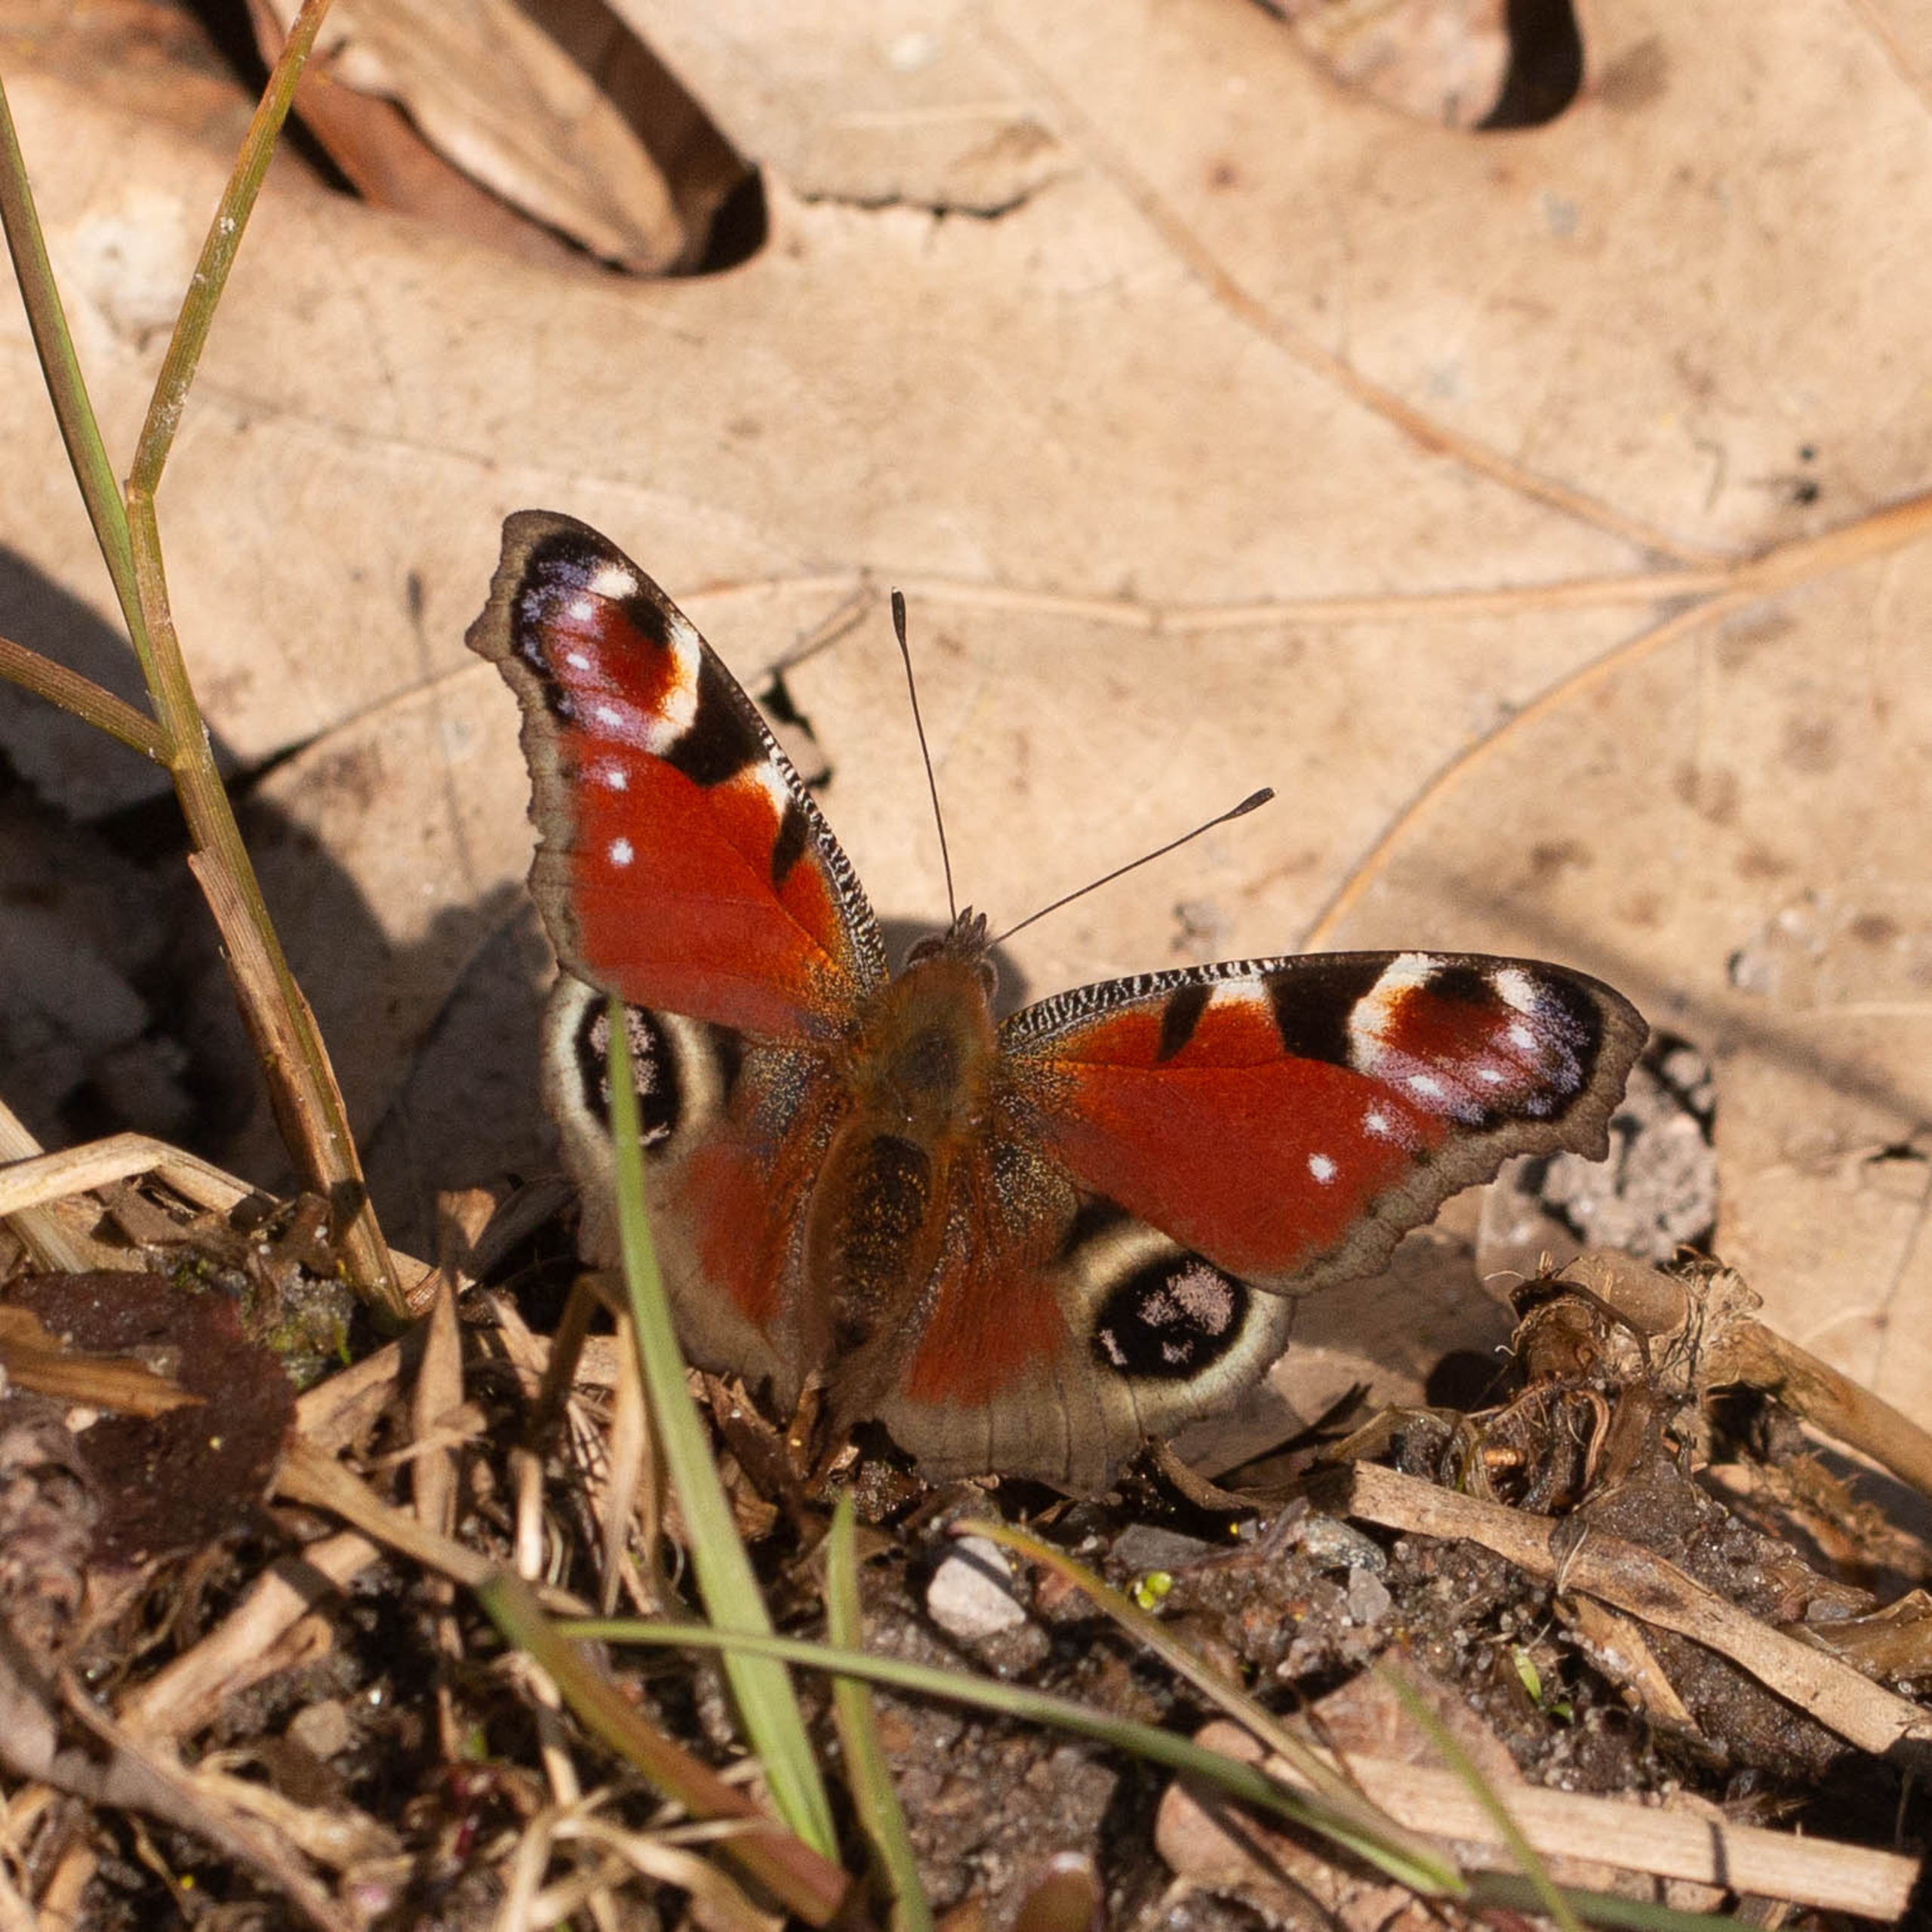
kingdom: Animalia
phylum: Arthropoda
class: Insecta
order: Lepidoptera
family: Nymphalidae
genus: Aglais
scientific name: Aglais io
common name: Dagpåfugleøje
